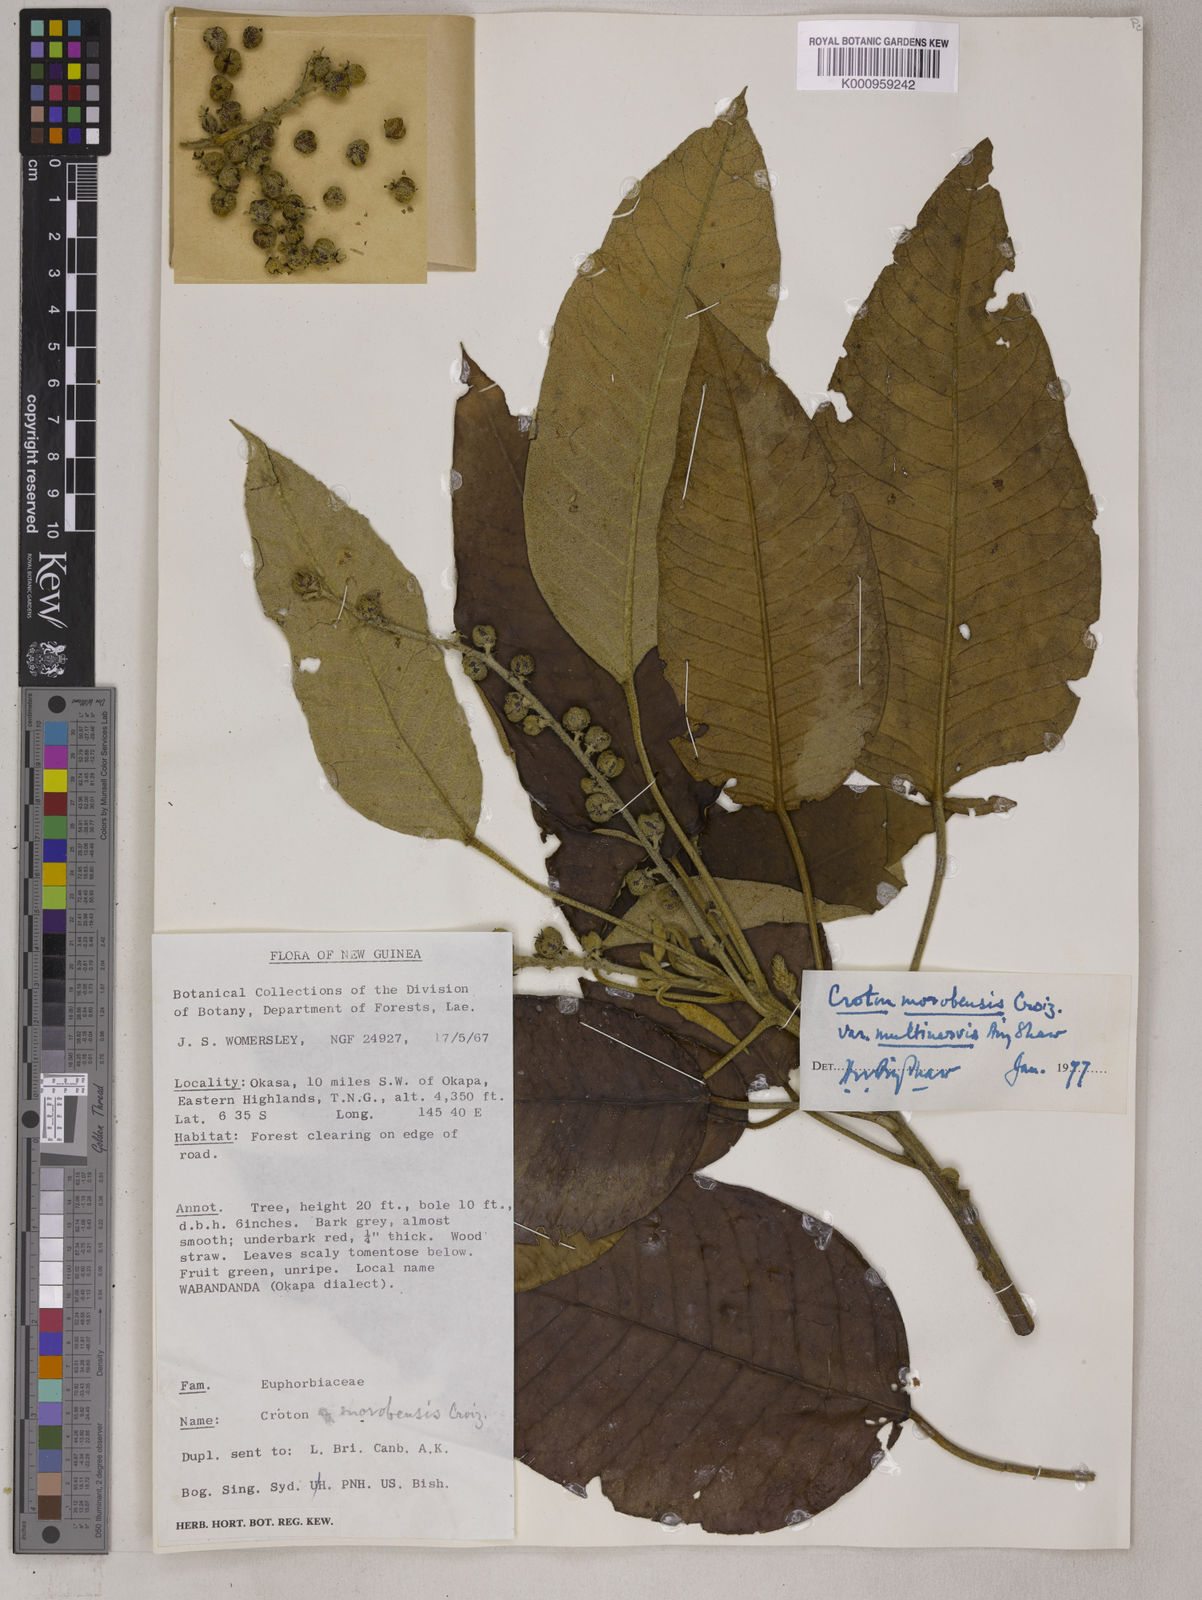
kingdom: Plantae
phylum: Tracheophyta
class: Magnoliopsida
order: Malpighiales
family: Euphorbiaceae
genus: Croton
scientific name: Croton morobensis
